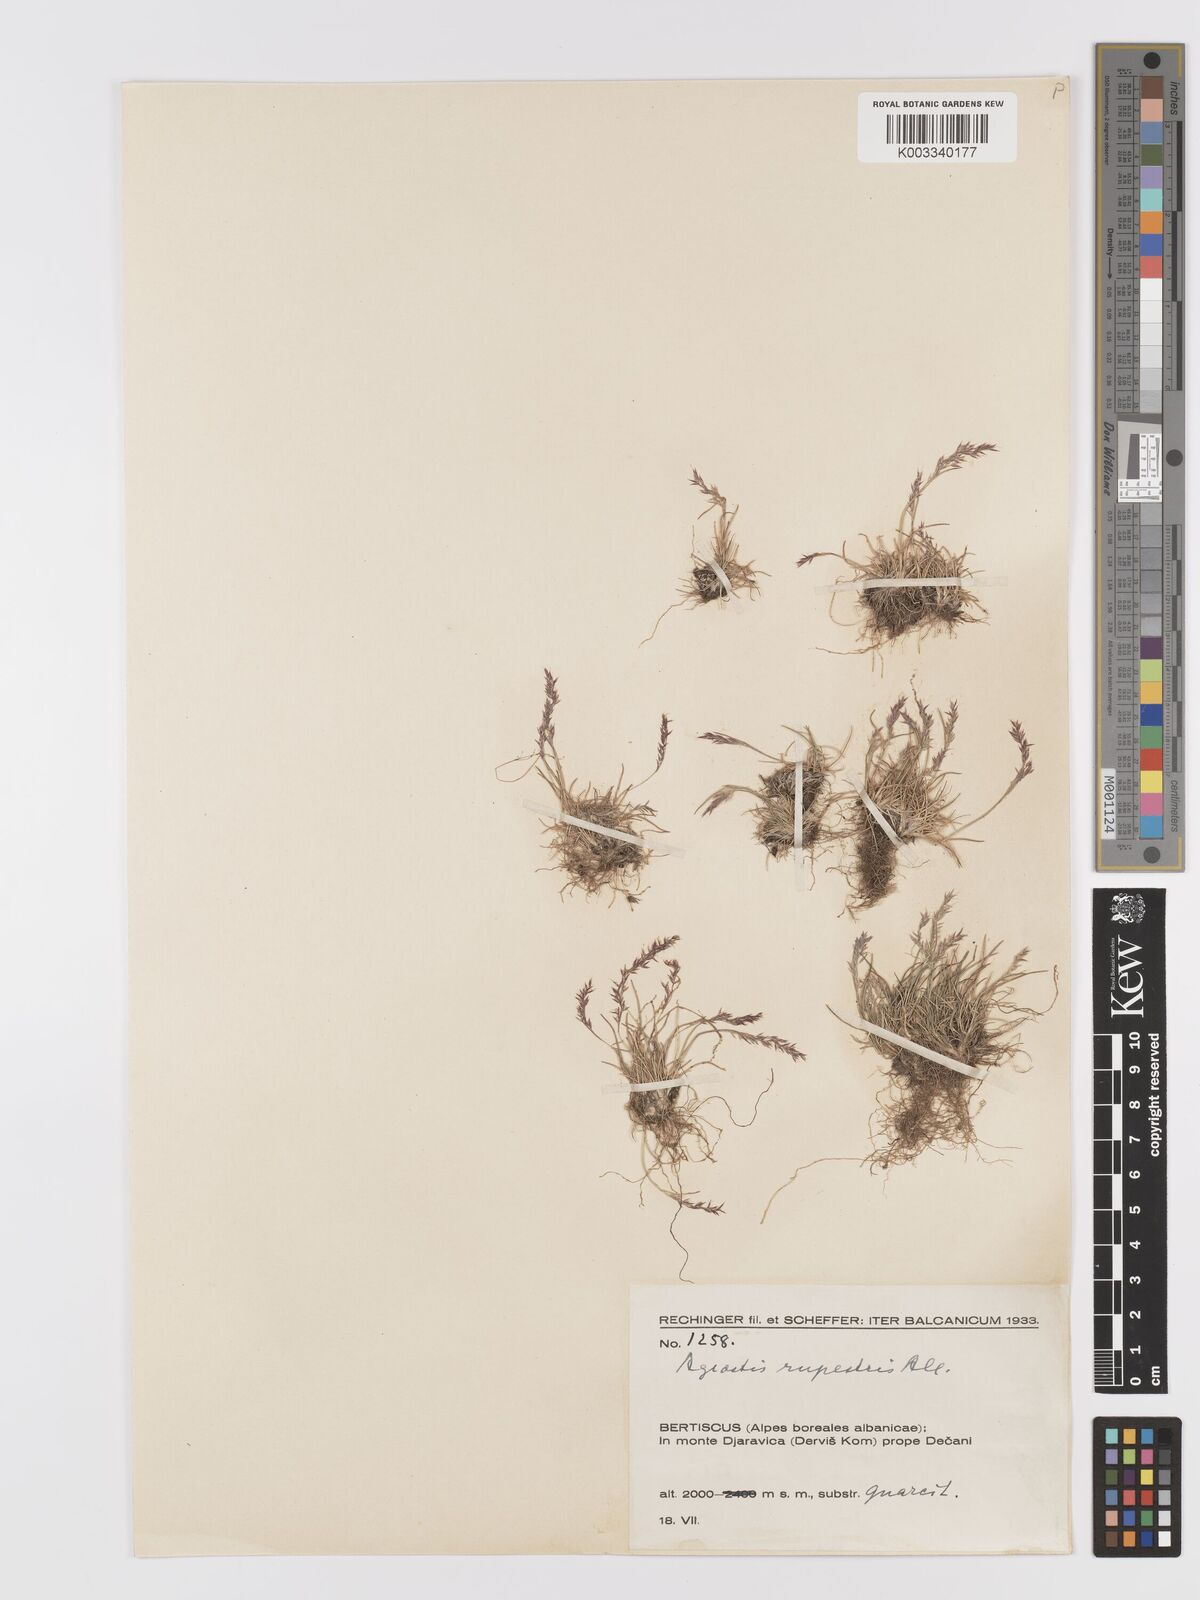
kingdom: Plantae
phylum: Tracheophyta
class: Liliopsida
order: Poales
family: Poaceae
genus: Agrostis
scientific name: Agrostis rupestris
